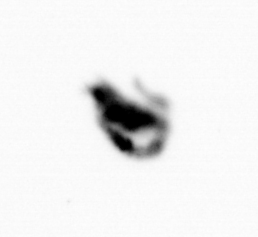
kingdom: Animalia
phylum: Arthropoda
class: Copepoda
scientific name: Copepoda
